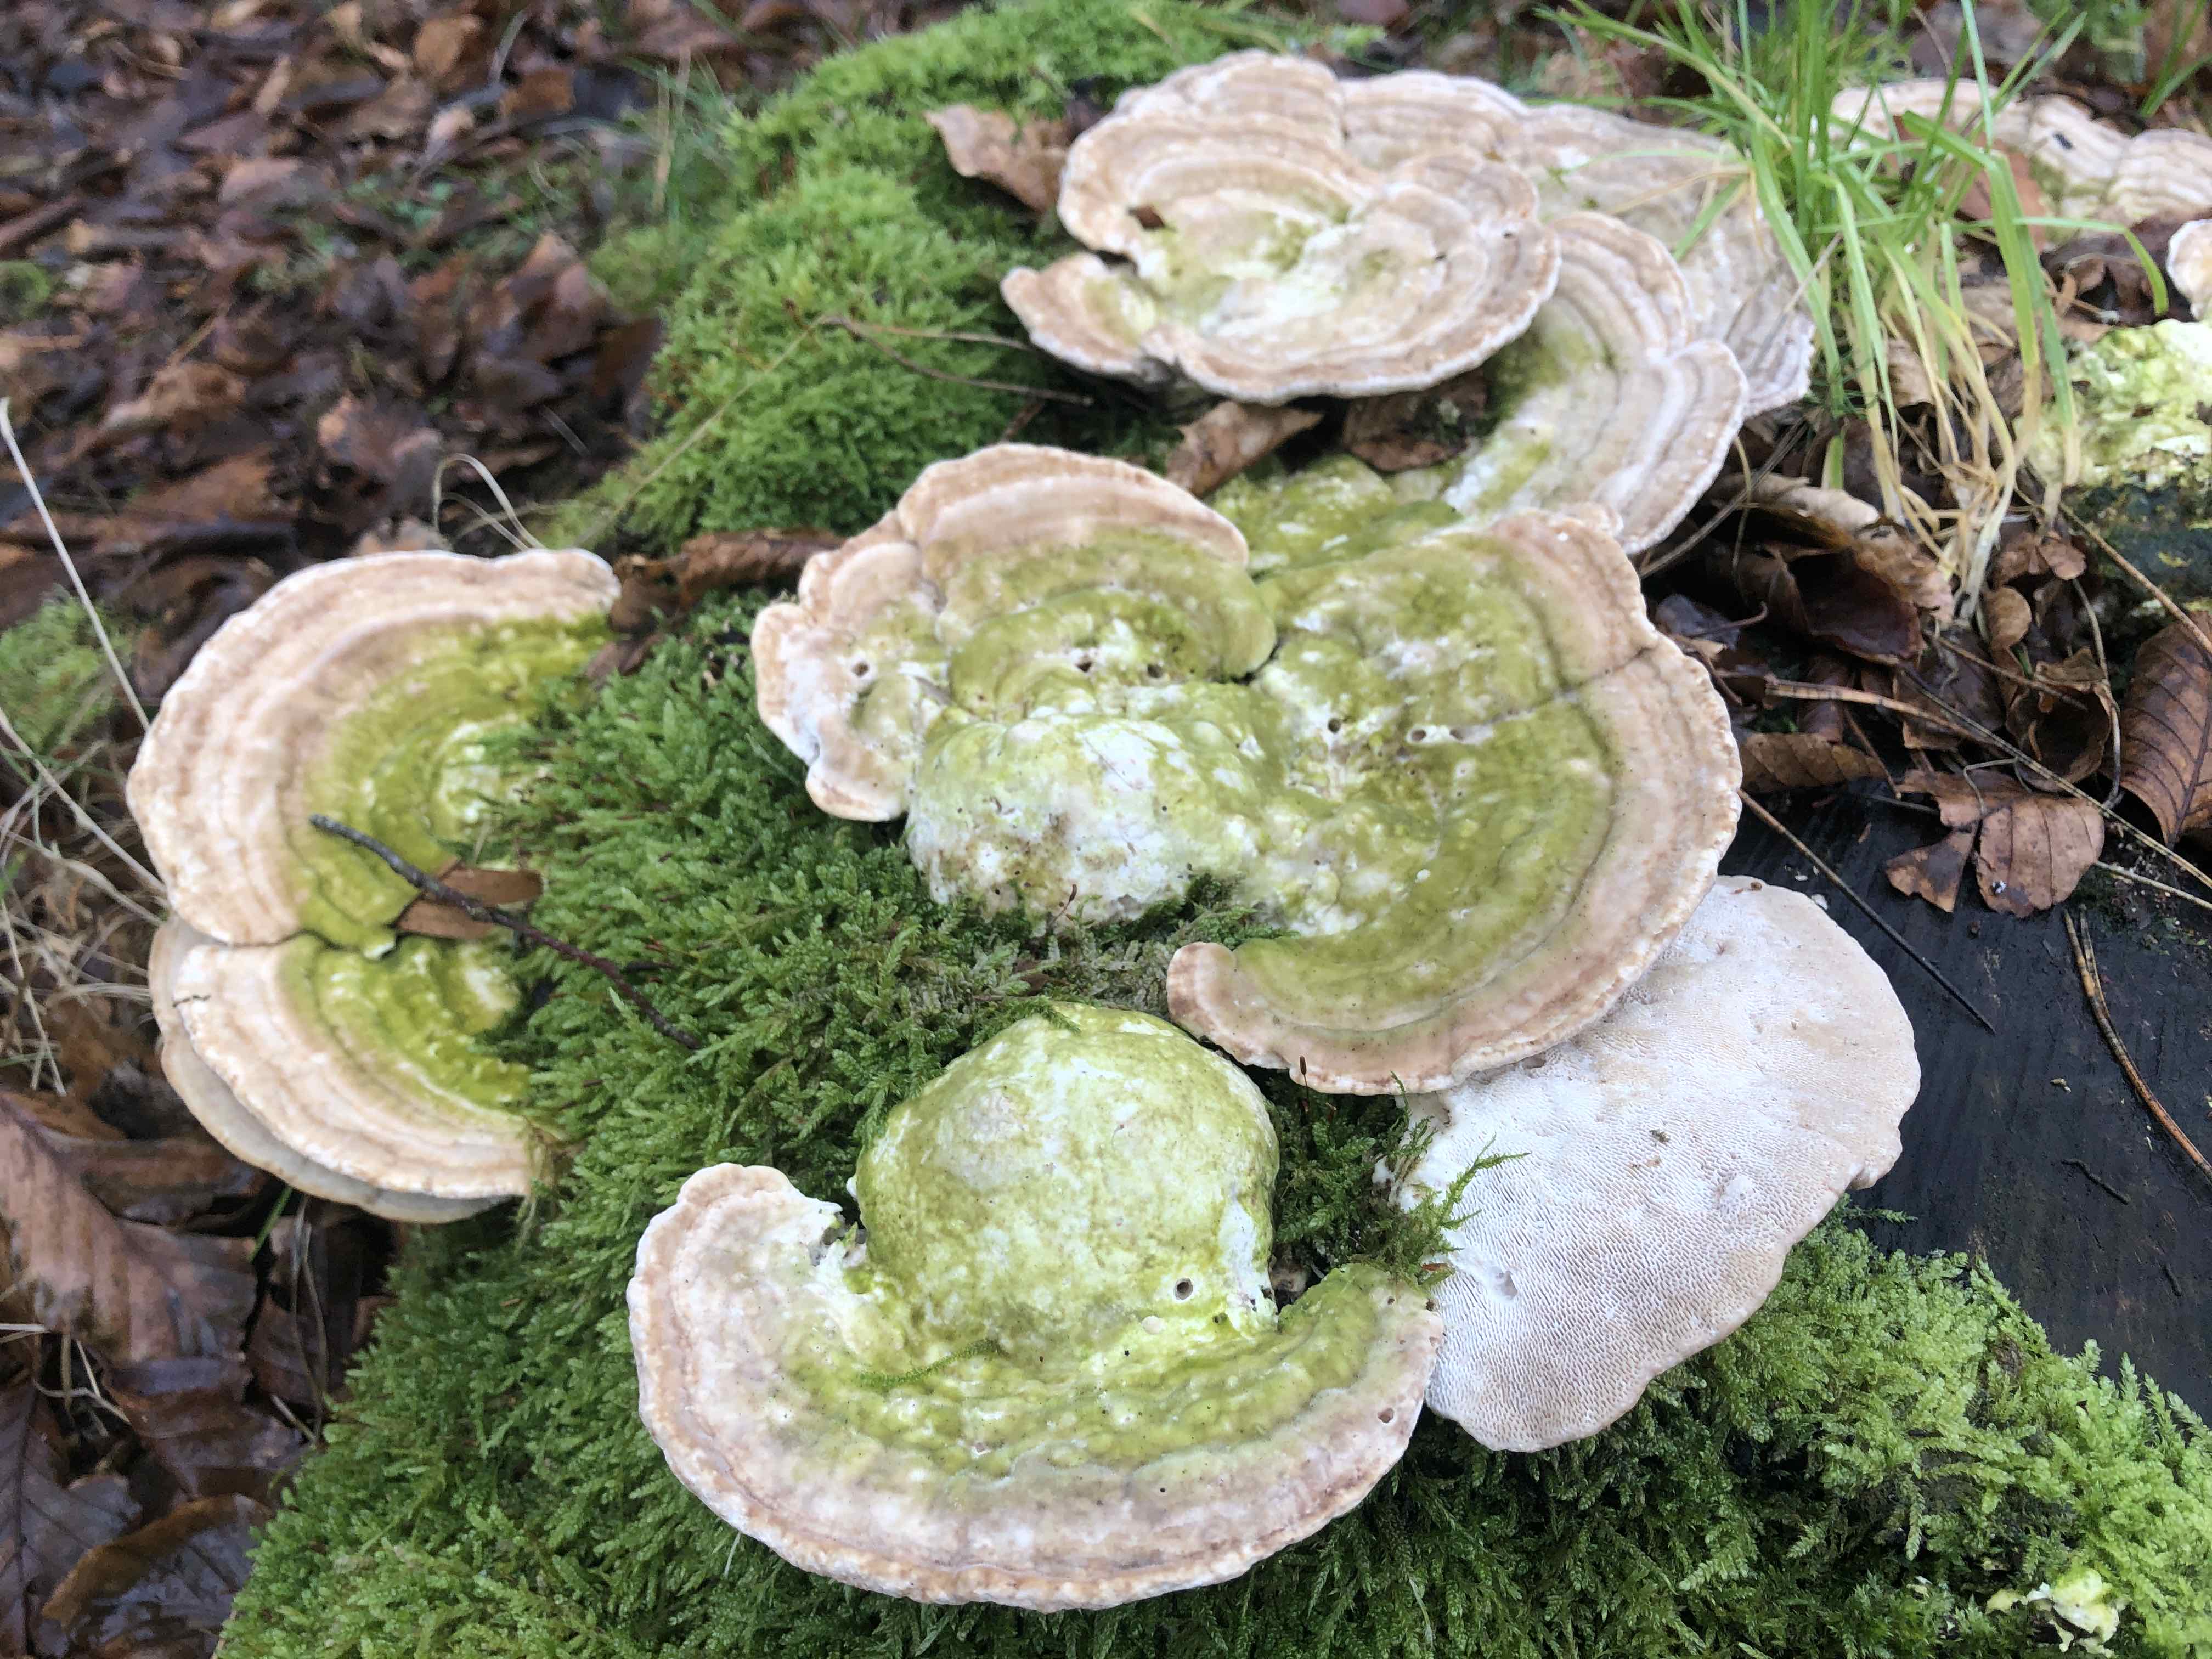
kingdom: Fungi
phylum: Basidiomycota
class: Agaricomycetes
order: Polyporales
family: Polyporaceae
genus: Trametes
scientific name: Trametes gibbosa
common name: puklet læderporesvamp
